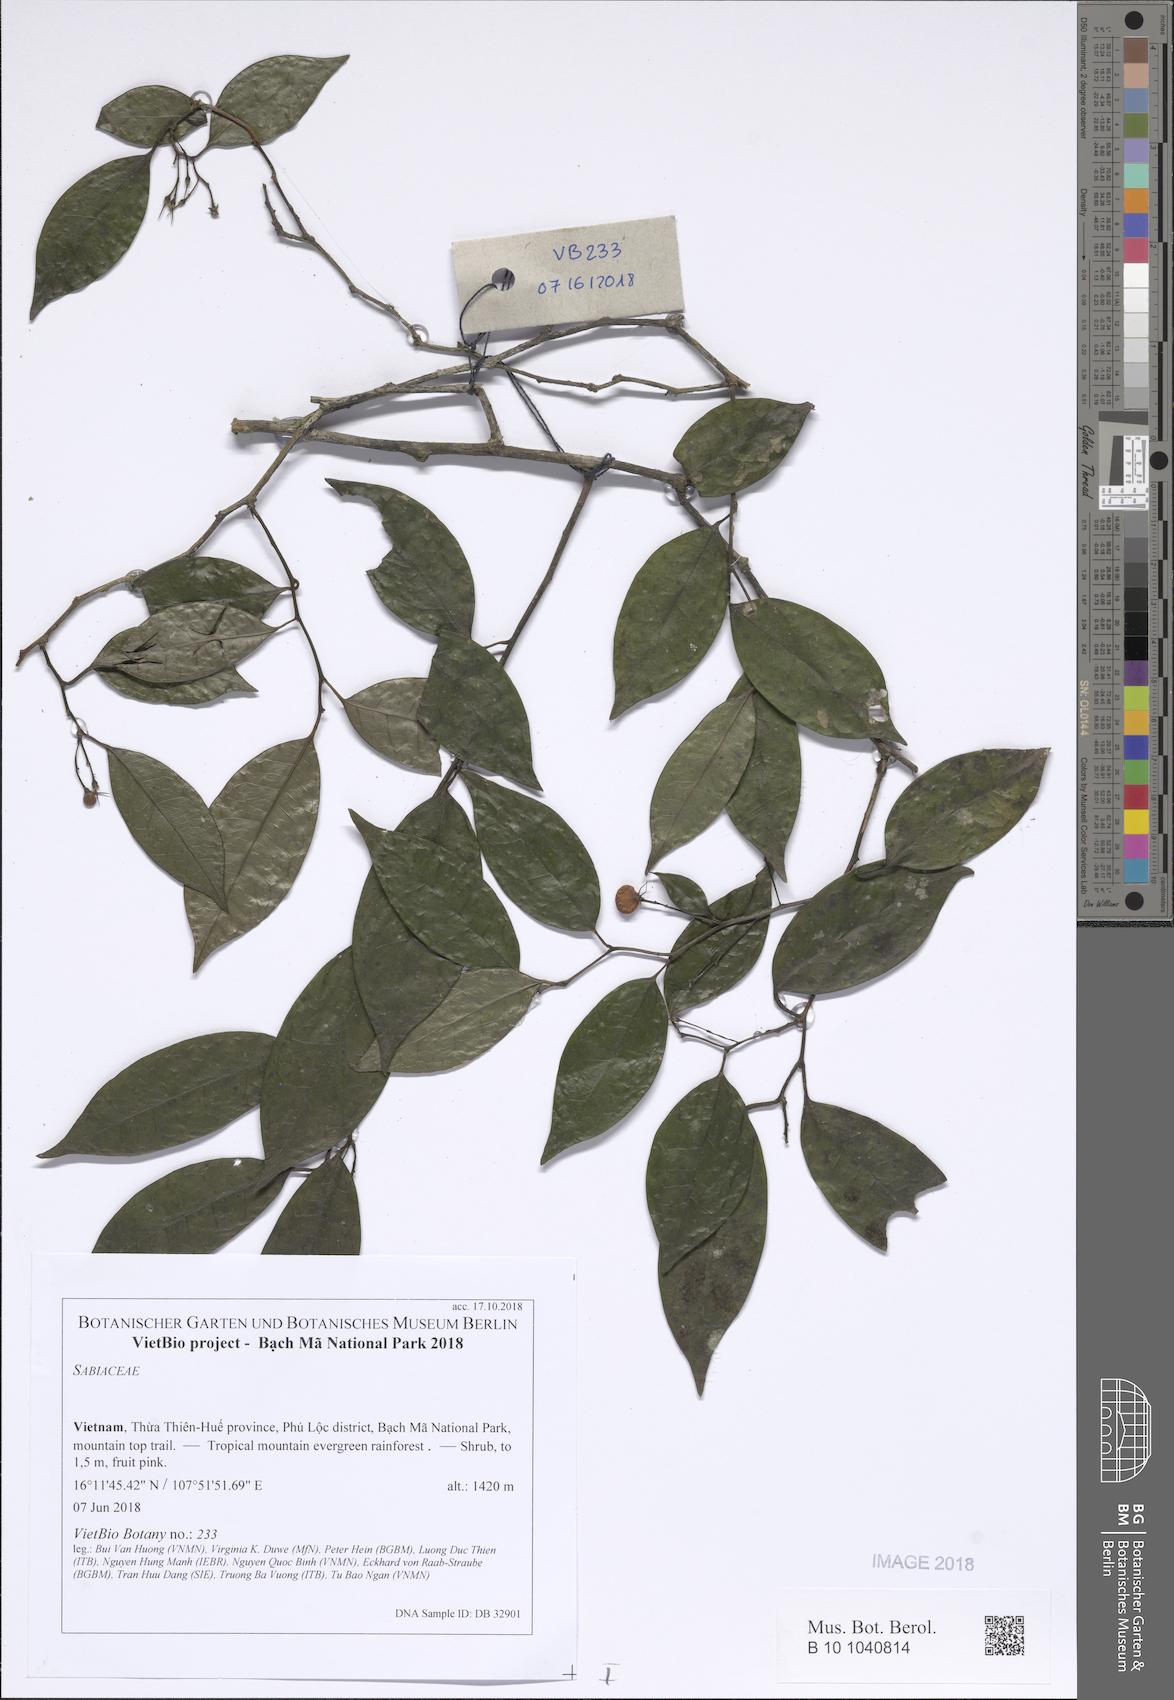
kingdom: Plantae
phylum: Tracheophyta
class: Magnoliopsida
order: Proteales
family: Sabiaceae
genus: Sabia
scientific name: Sabia fasciculata
